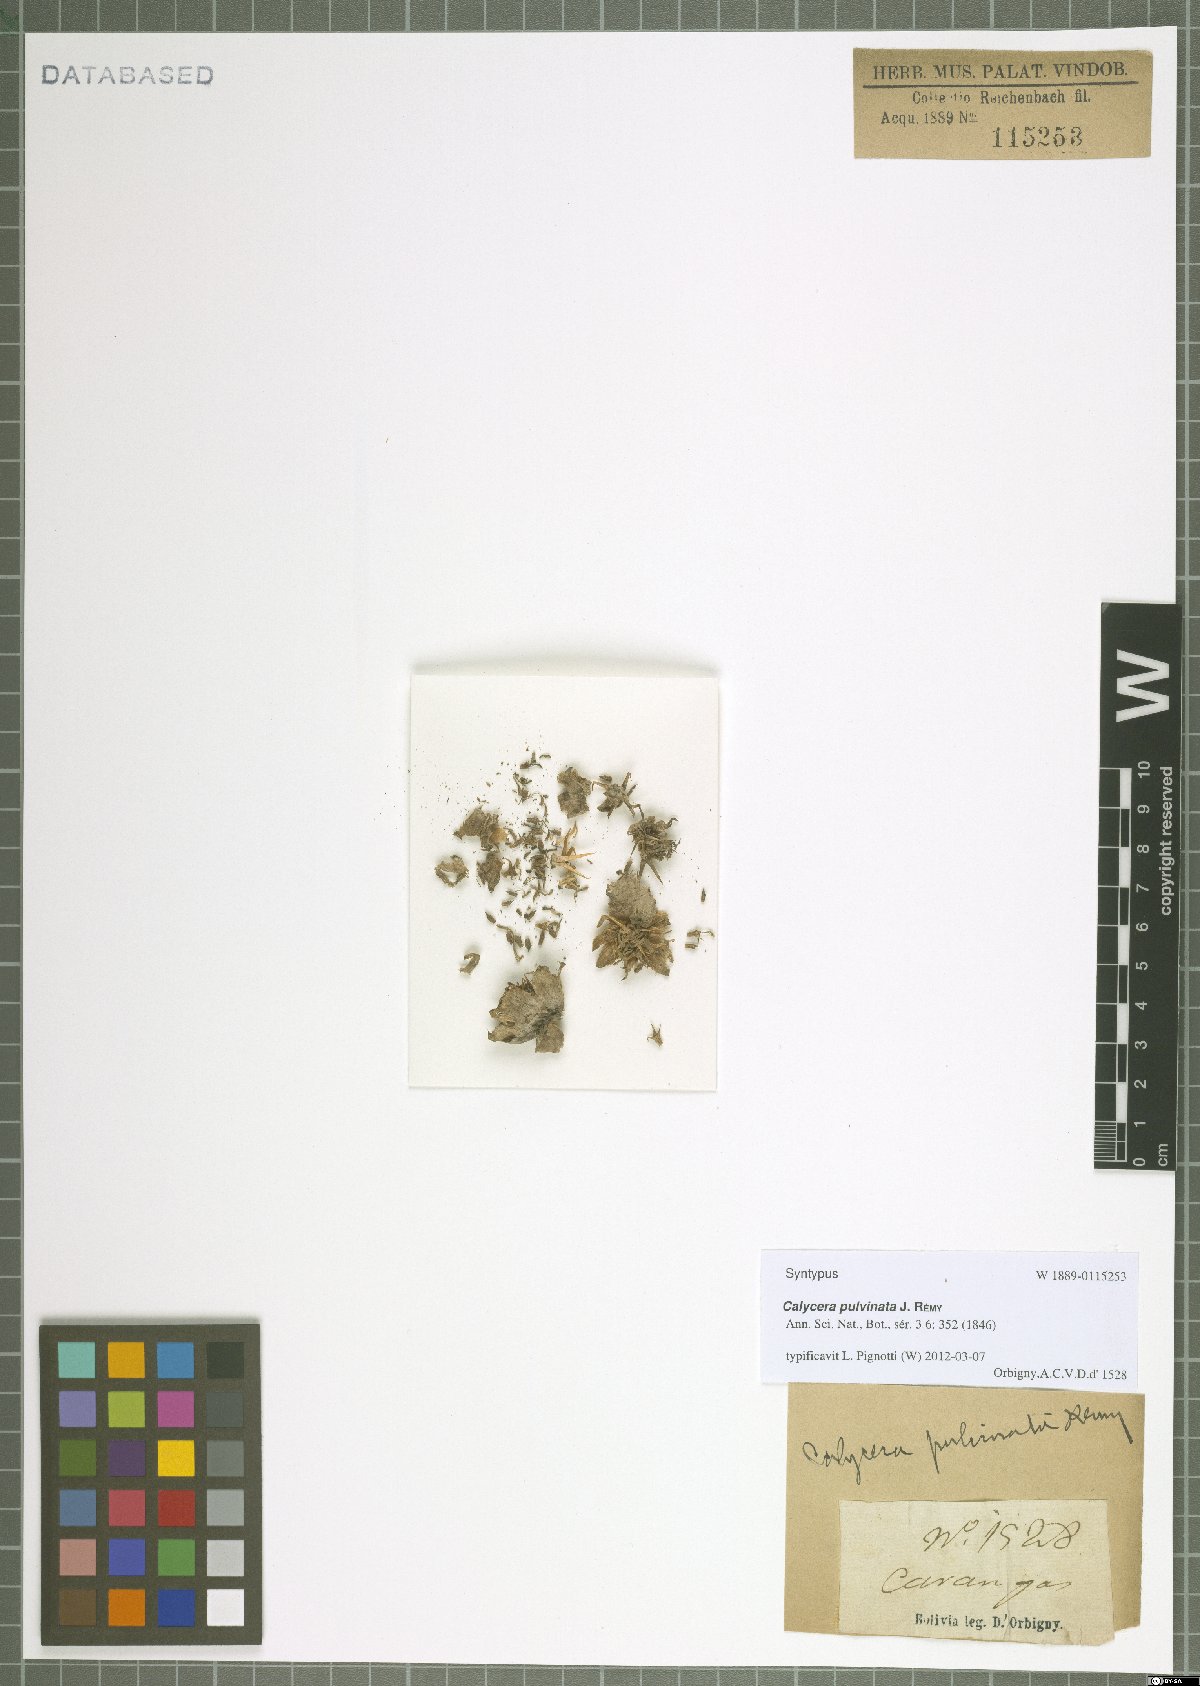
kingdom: Plantae
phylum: Tracheophyta
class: Magnoliopsida
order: Asterales
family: Calyceraceae
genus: Calycera
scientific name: Calycera pulvinata
